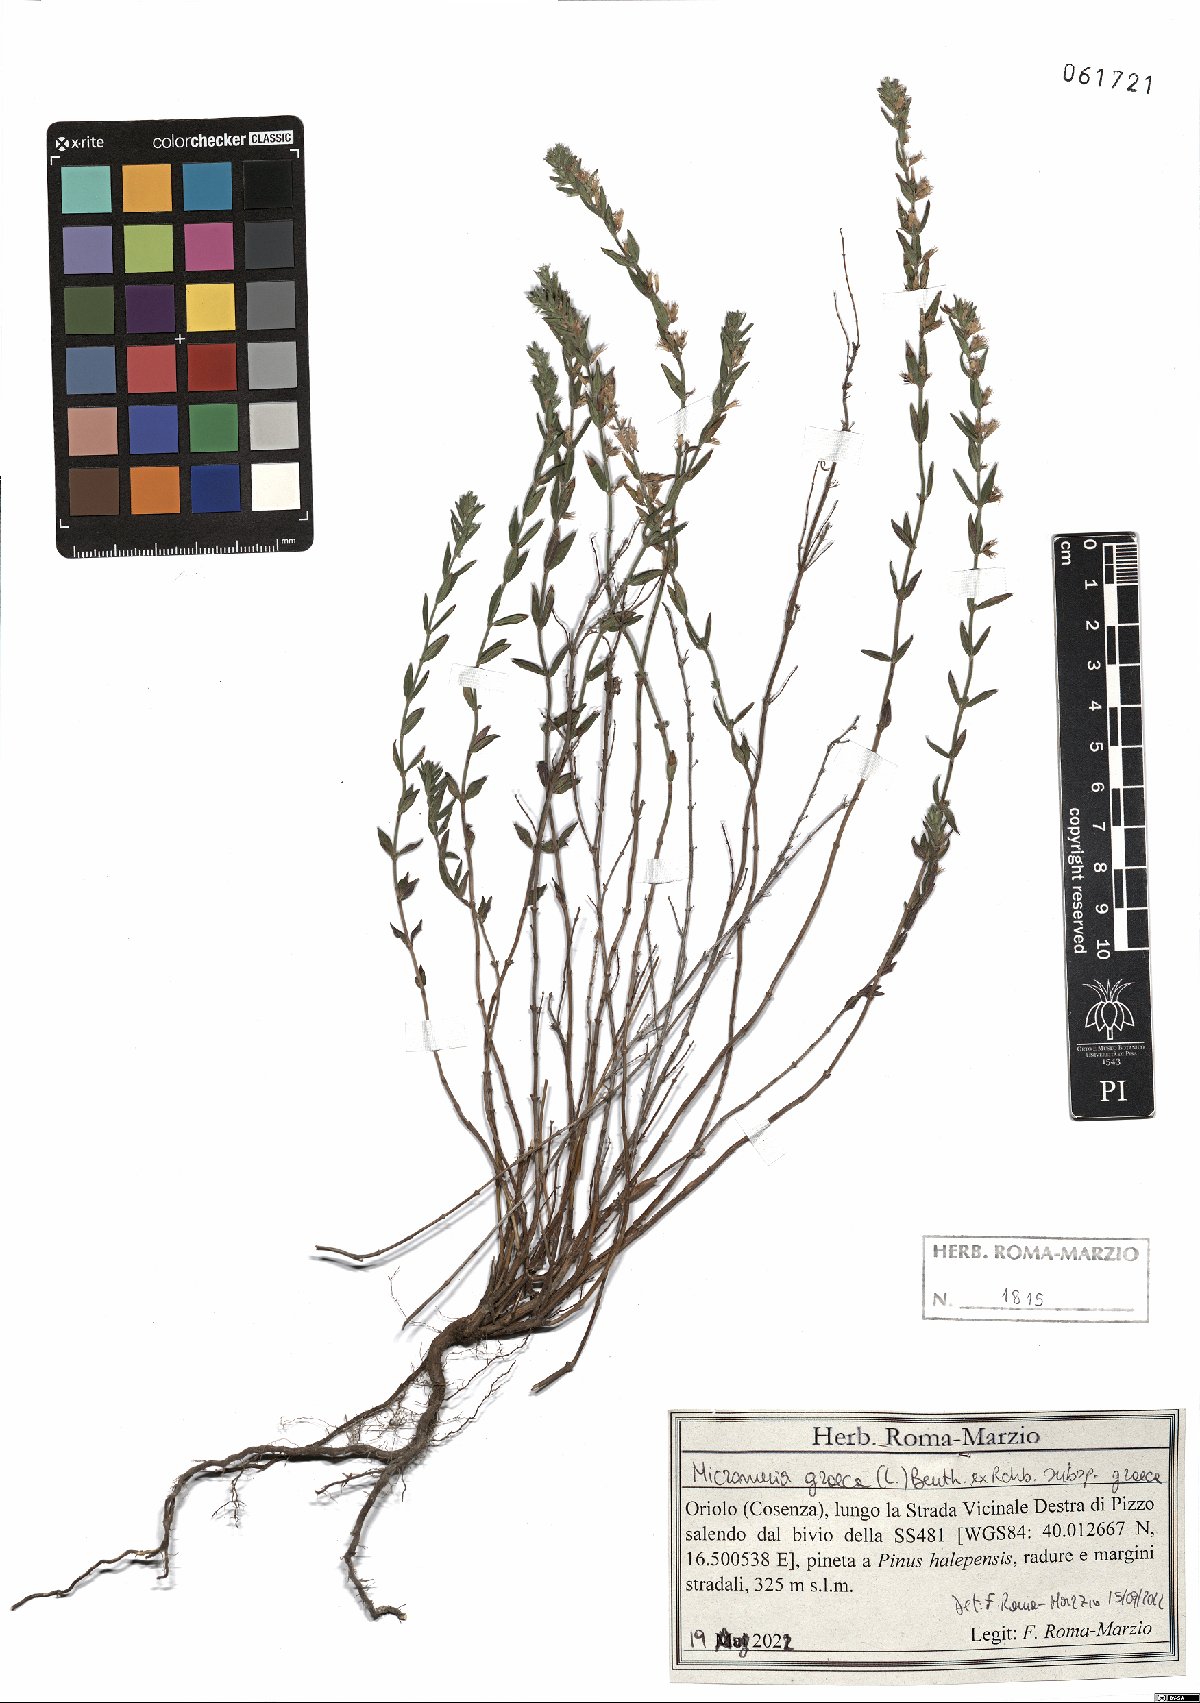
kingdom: Plantae
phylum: Tracheophyta
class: Magnoliopsida
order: Lamiales
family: Lamiaceae
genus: Micromeria
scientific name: Micromeria graeca
